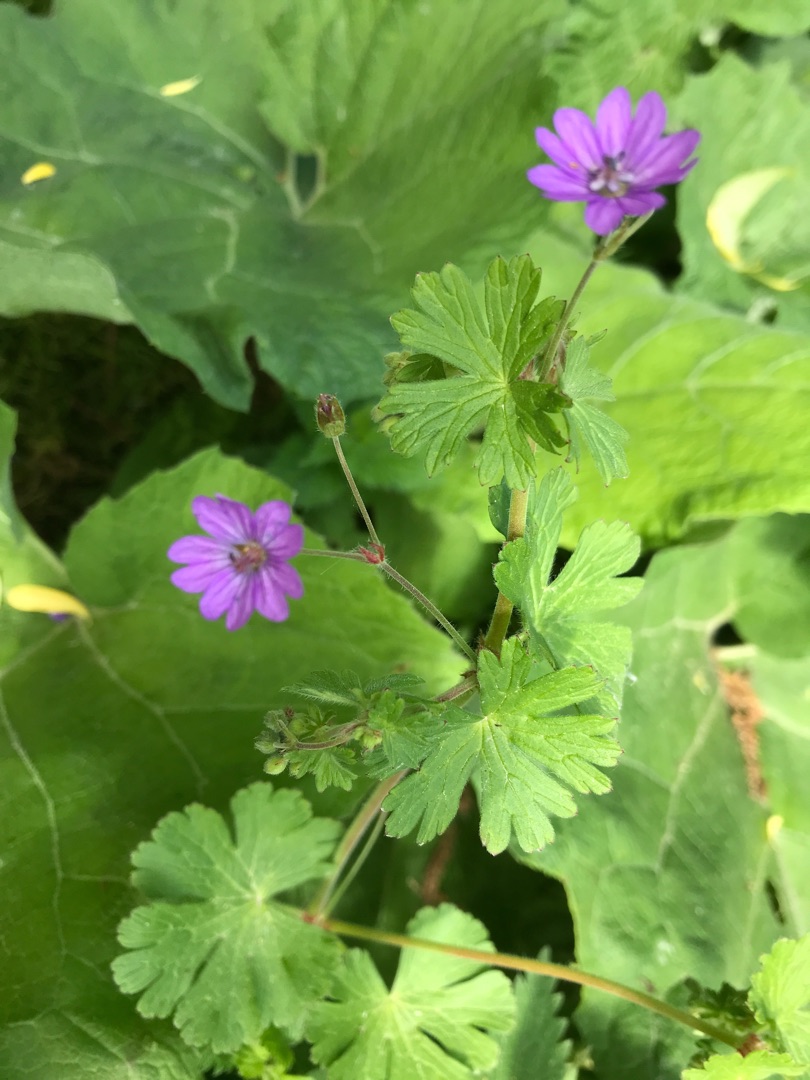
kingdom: Plantae
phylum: Tracheophyta
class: Magnoliopsida
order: Geraniales
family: Geraniaceae
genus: Geranium
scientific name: Geranium pyrenaicum
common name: Pyrenæisk storkenæb
